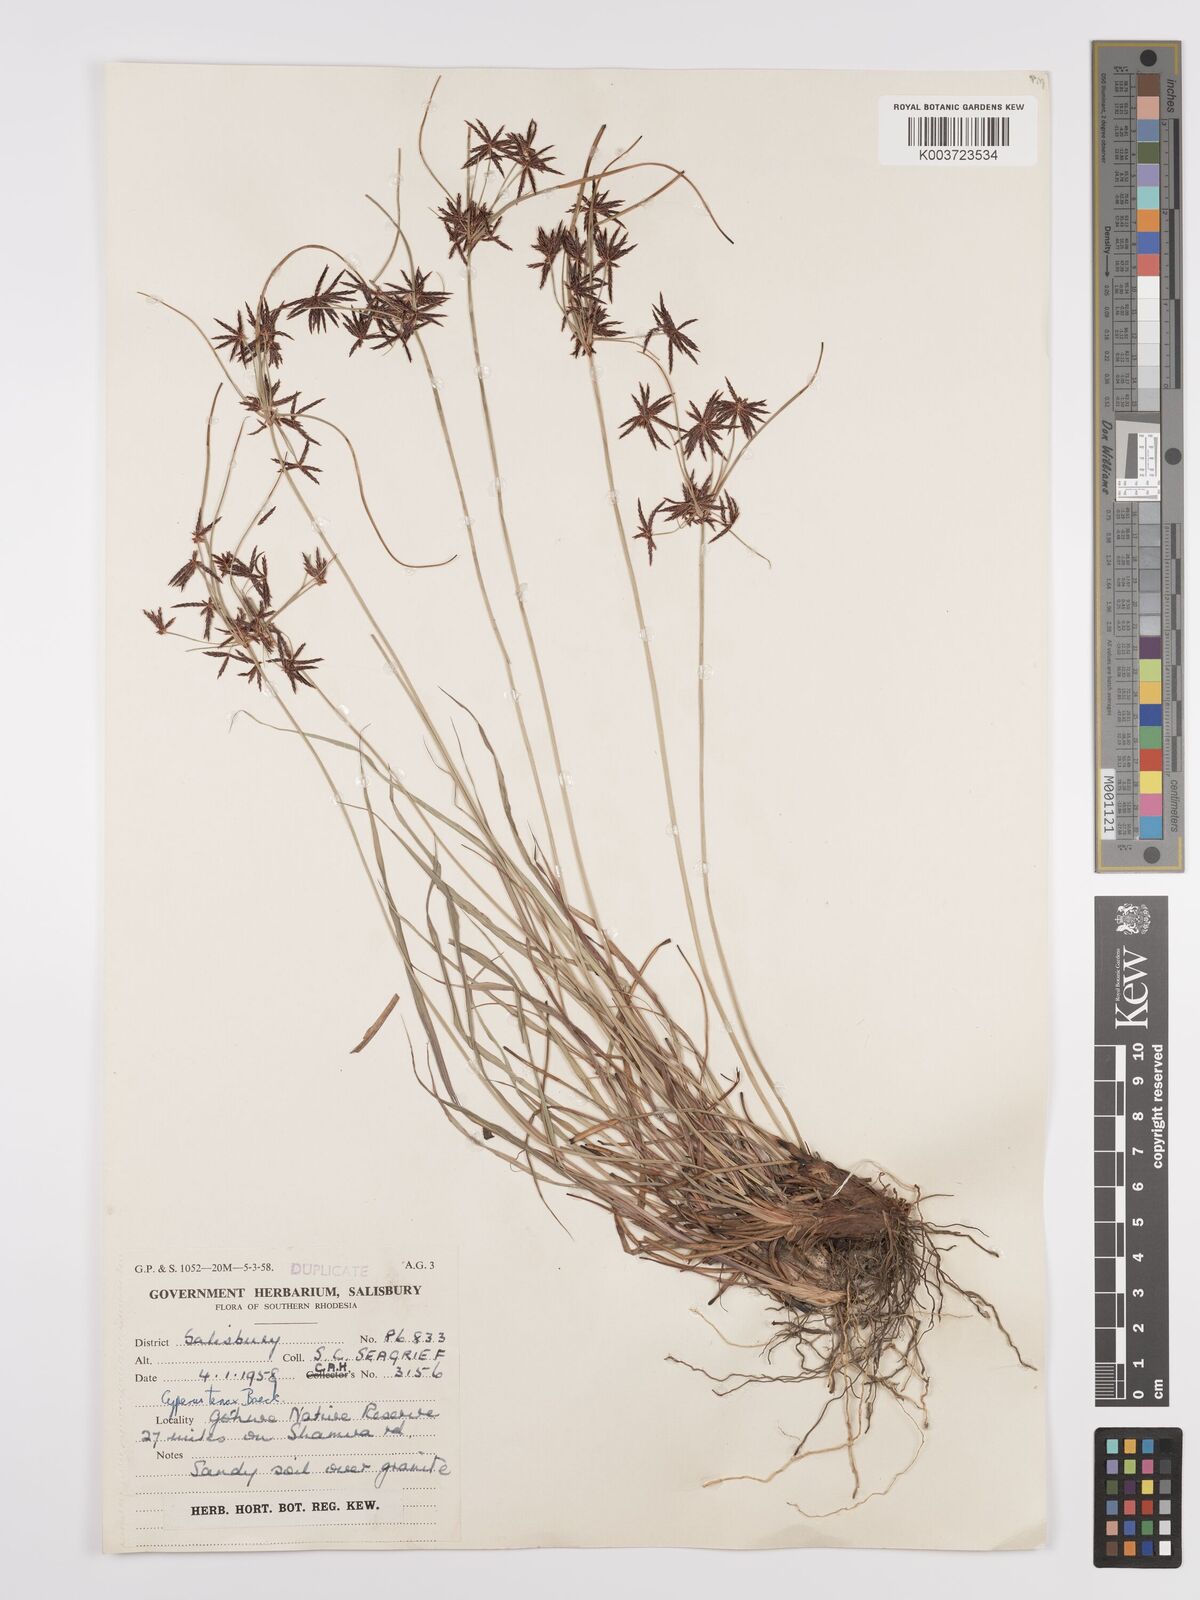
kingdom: Plantae
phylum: Tracheophyta
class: Liliopsida
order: Poales
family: Cyperaceae
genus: Cyperus
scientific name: Cyperus tenax
